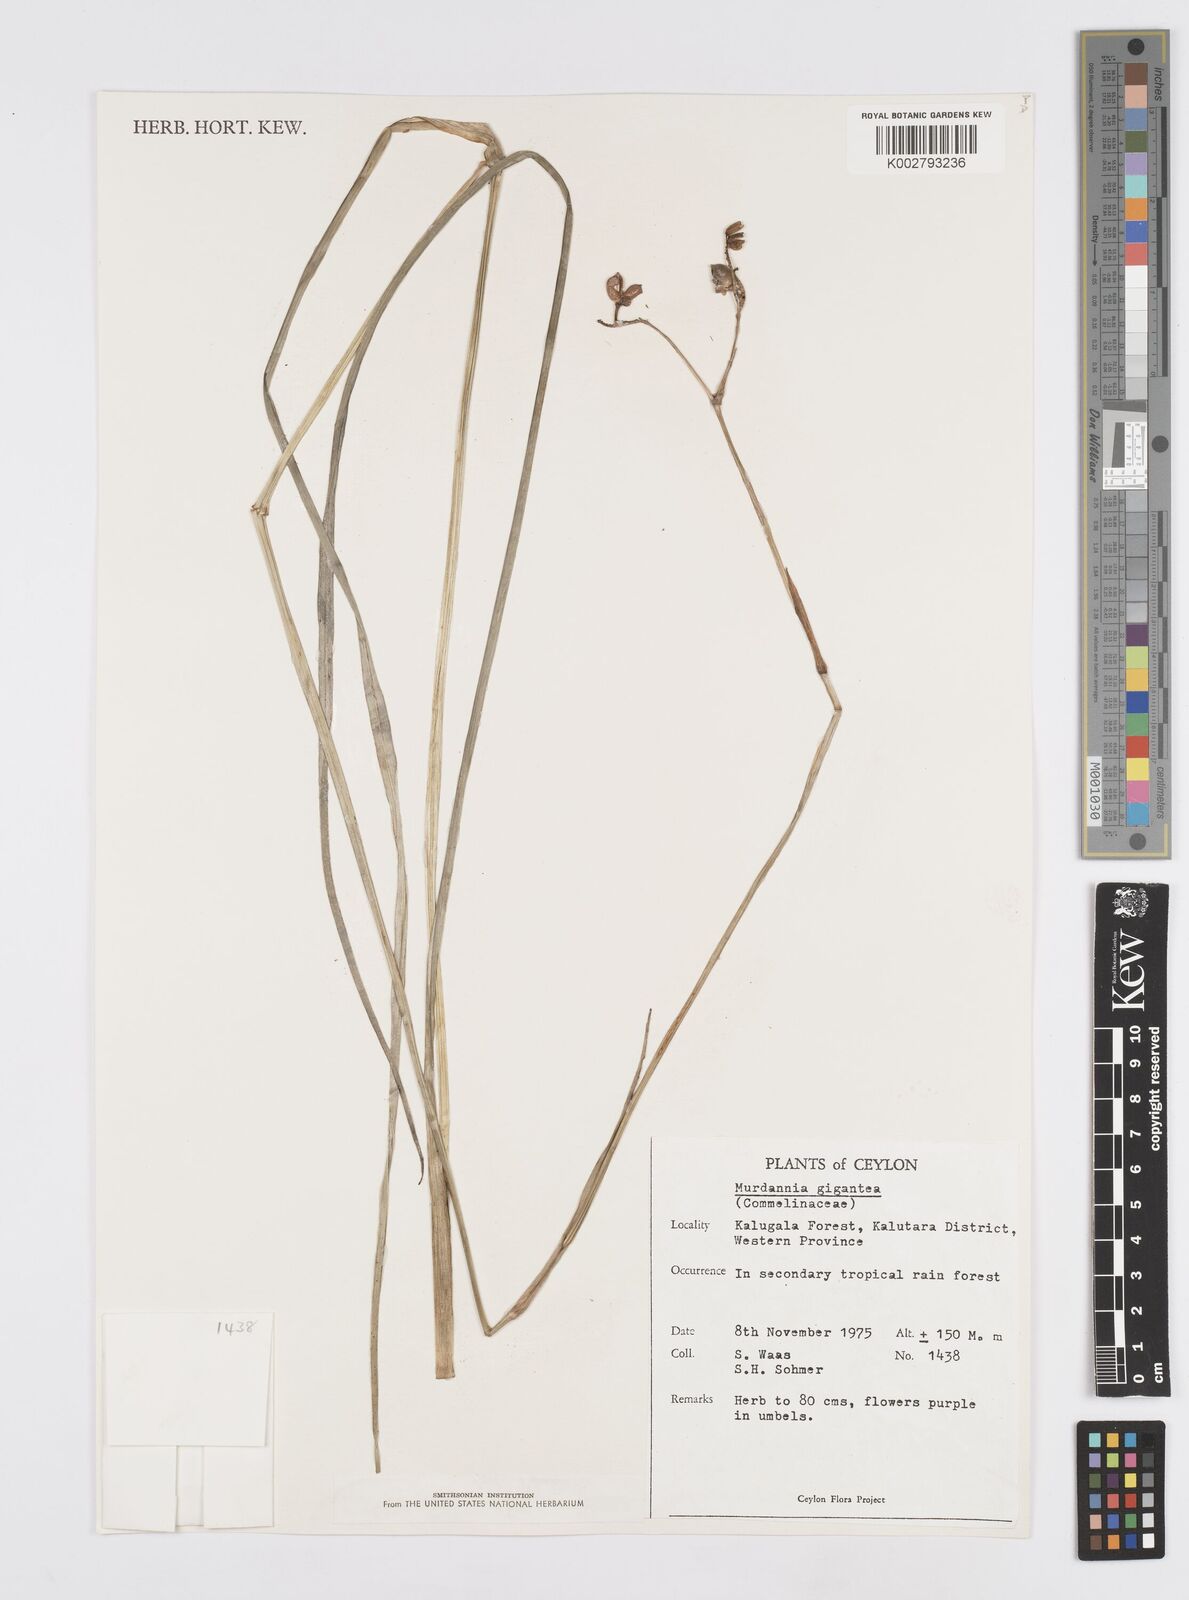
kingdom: Plantae
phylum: Tracheophyta
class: Liliopsida
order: Commelinales
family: Commelinaceae
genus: Murdannia
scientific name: Murdannia gigantea
